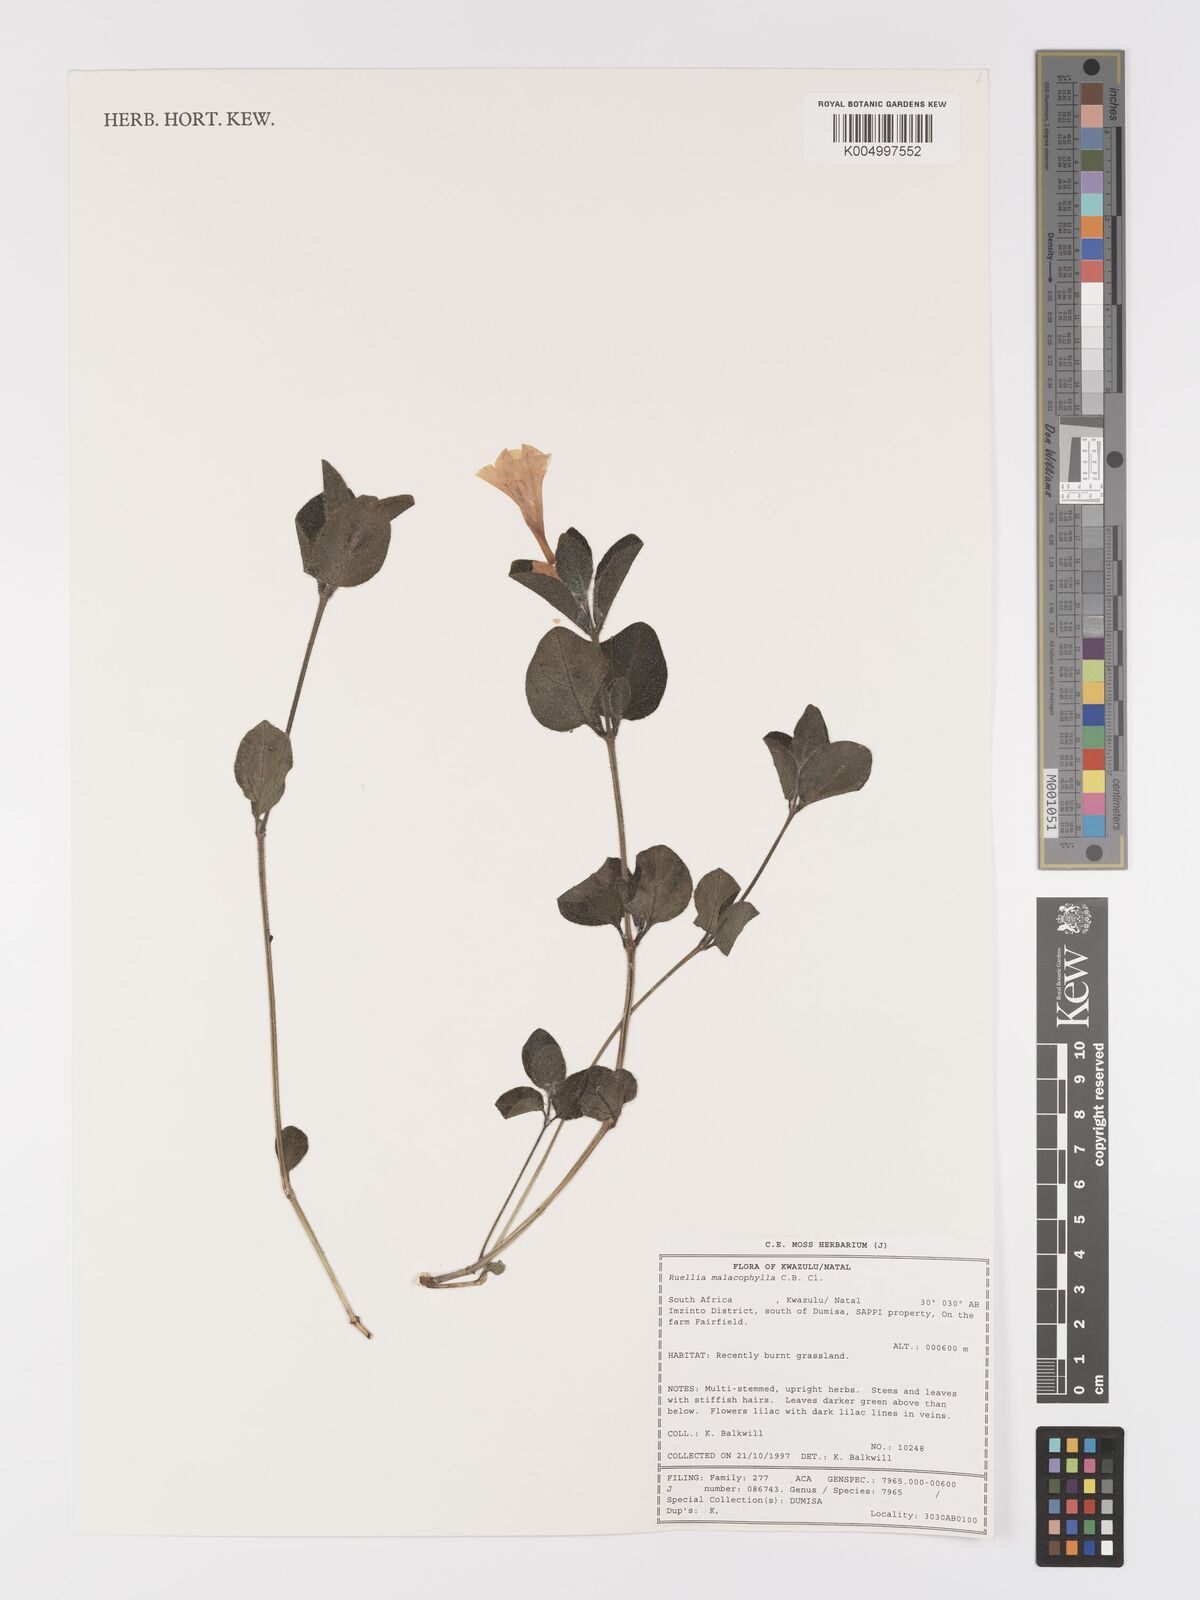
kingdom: Plantae
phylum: Tracheophyta
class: Magnoliopsida
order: Lamiales
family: Acanthaceae
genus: Crabbea
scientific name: Crabbea velutina
